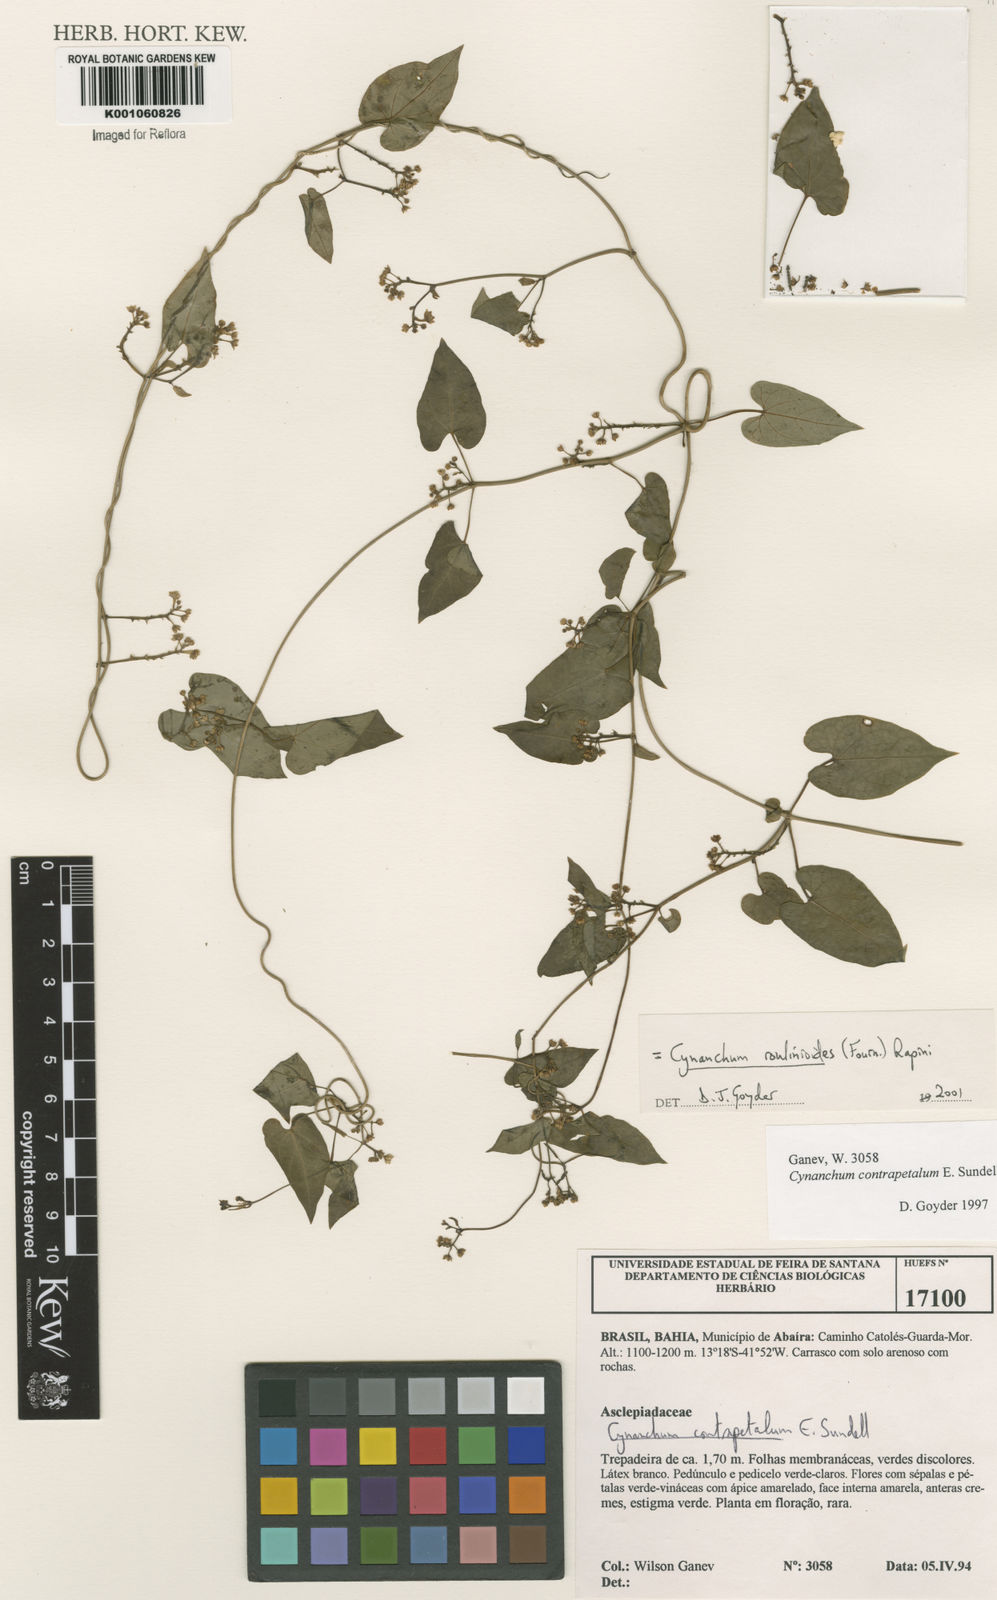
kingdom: Plantae
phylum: Tracheophyta
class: Magnoliopsida
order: Gentianales
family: Apocynaceae
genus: Cynanchum
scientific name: Cynanchum roulinioides
